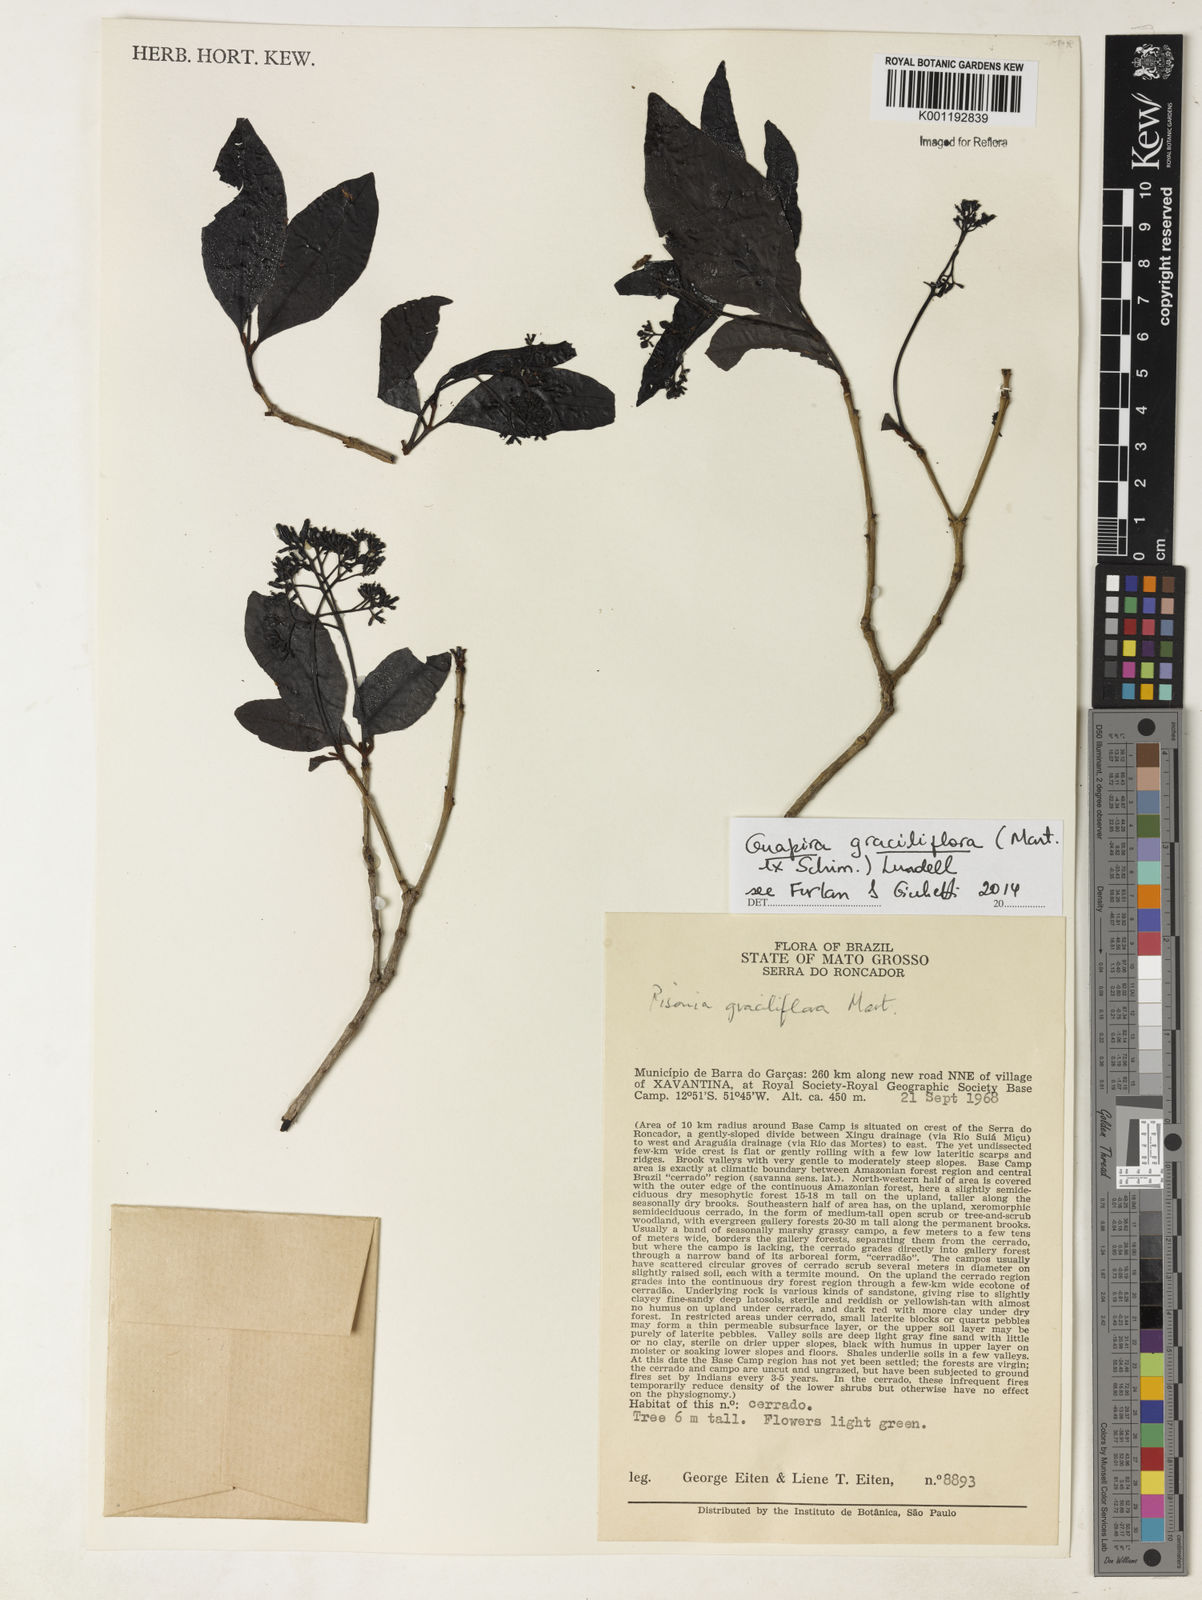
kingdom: Plantae
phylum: Tracheophyta
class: Magnoliopsida
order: Caryophyllales
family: Nyctaginaceae
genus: Guapira
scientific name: Guapira graciliflora
